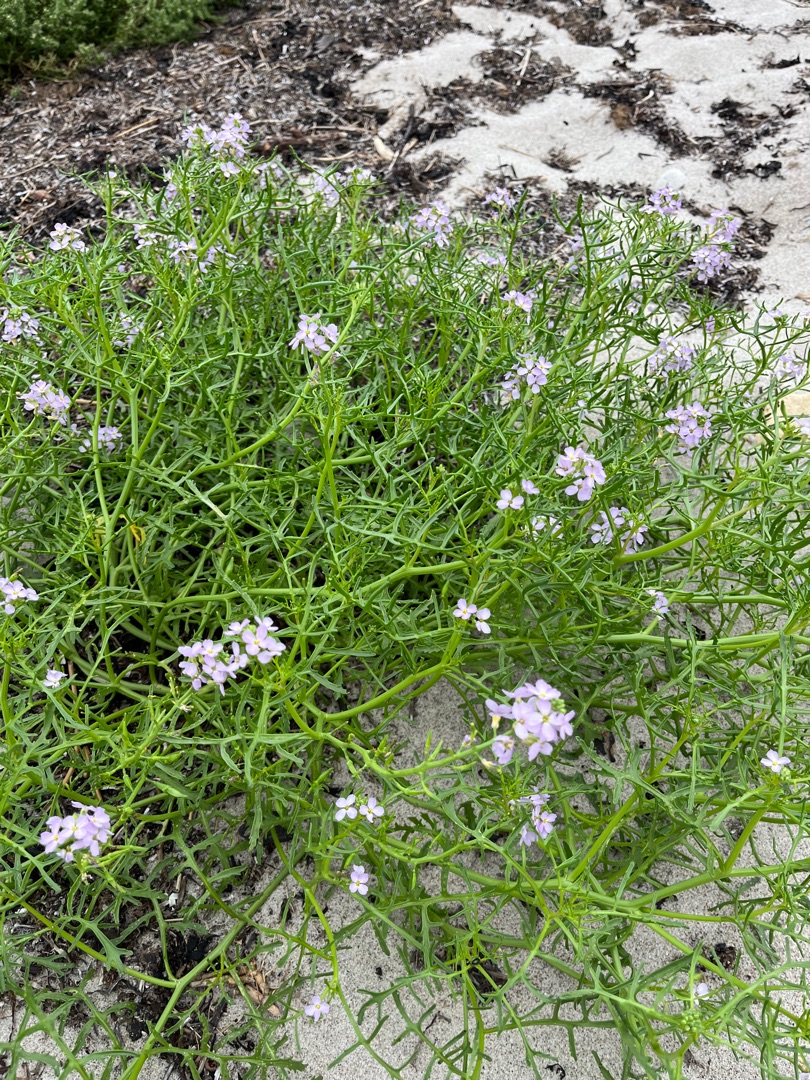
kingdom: Plantae
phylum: Tracheophyta
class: Magnoliopsida
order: Brassicales
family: Brassicaceae
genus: Cakile
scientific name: Cakile maritima
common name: Strandsennep
